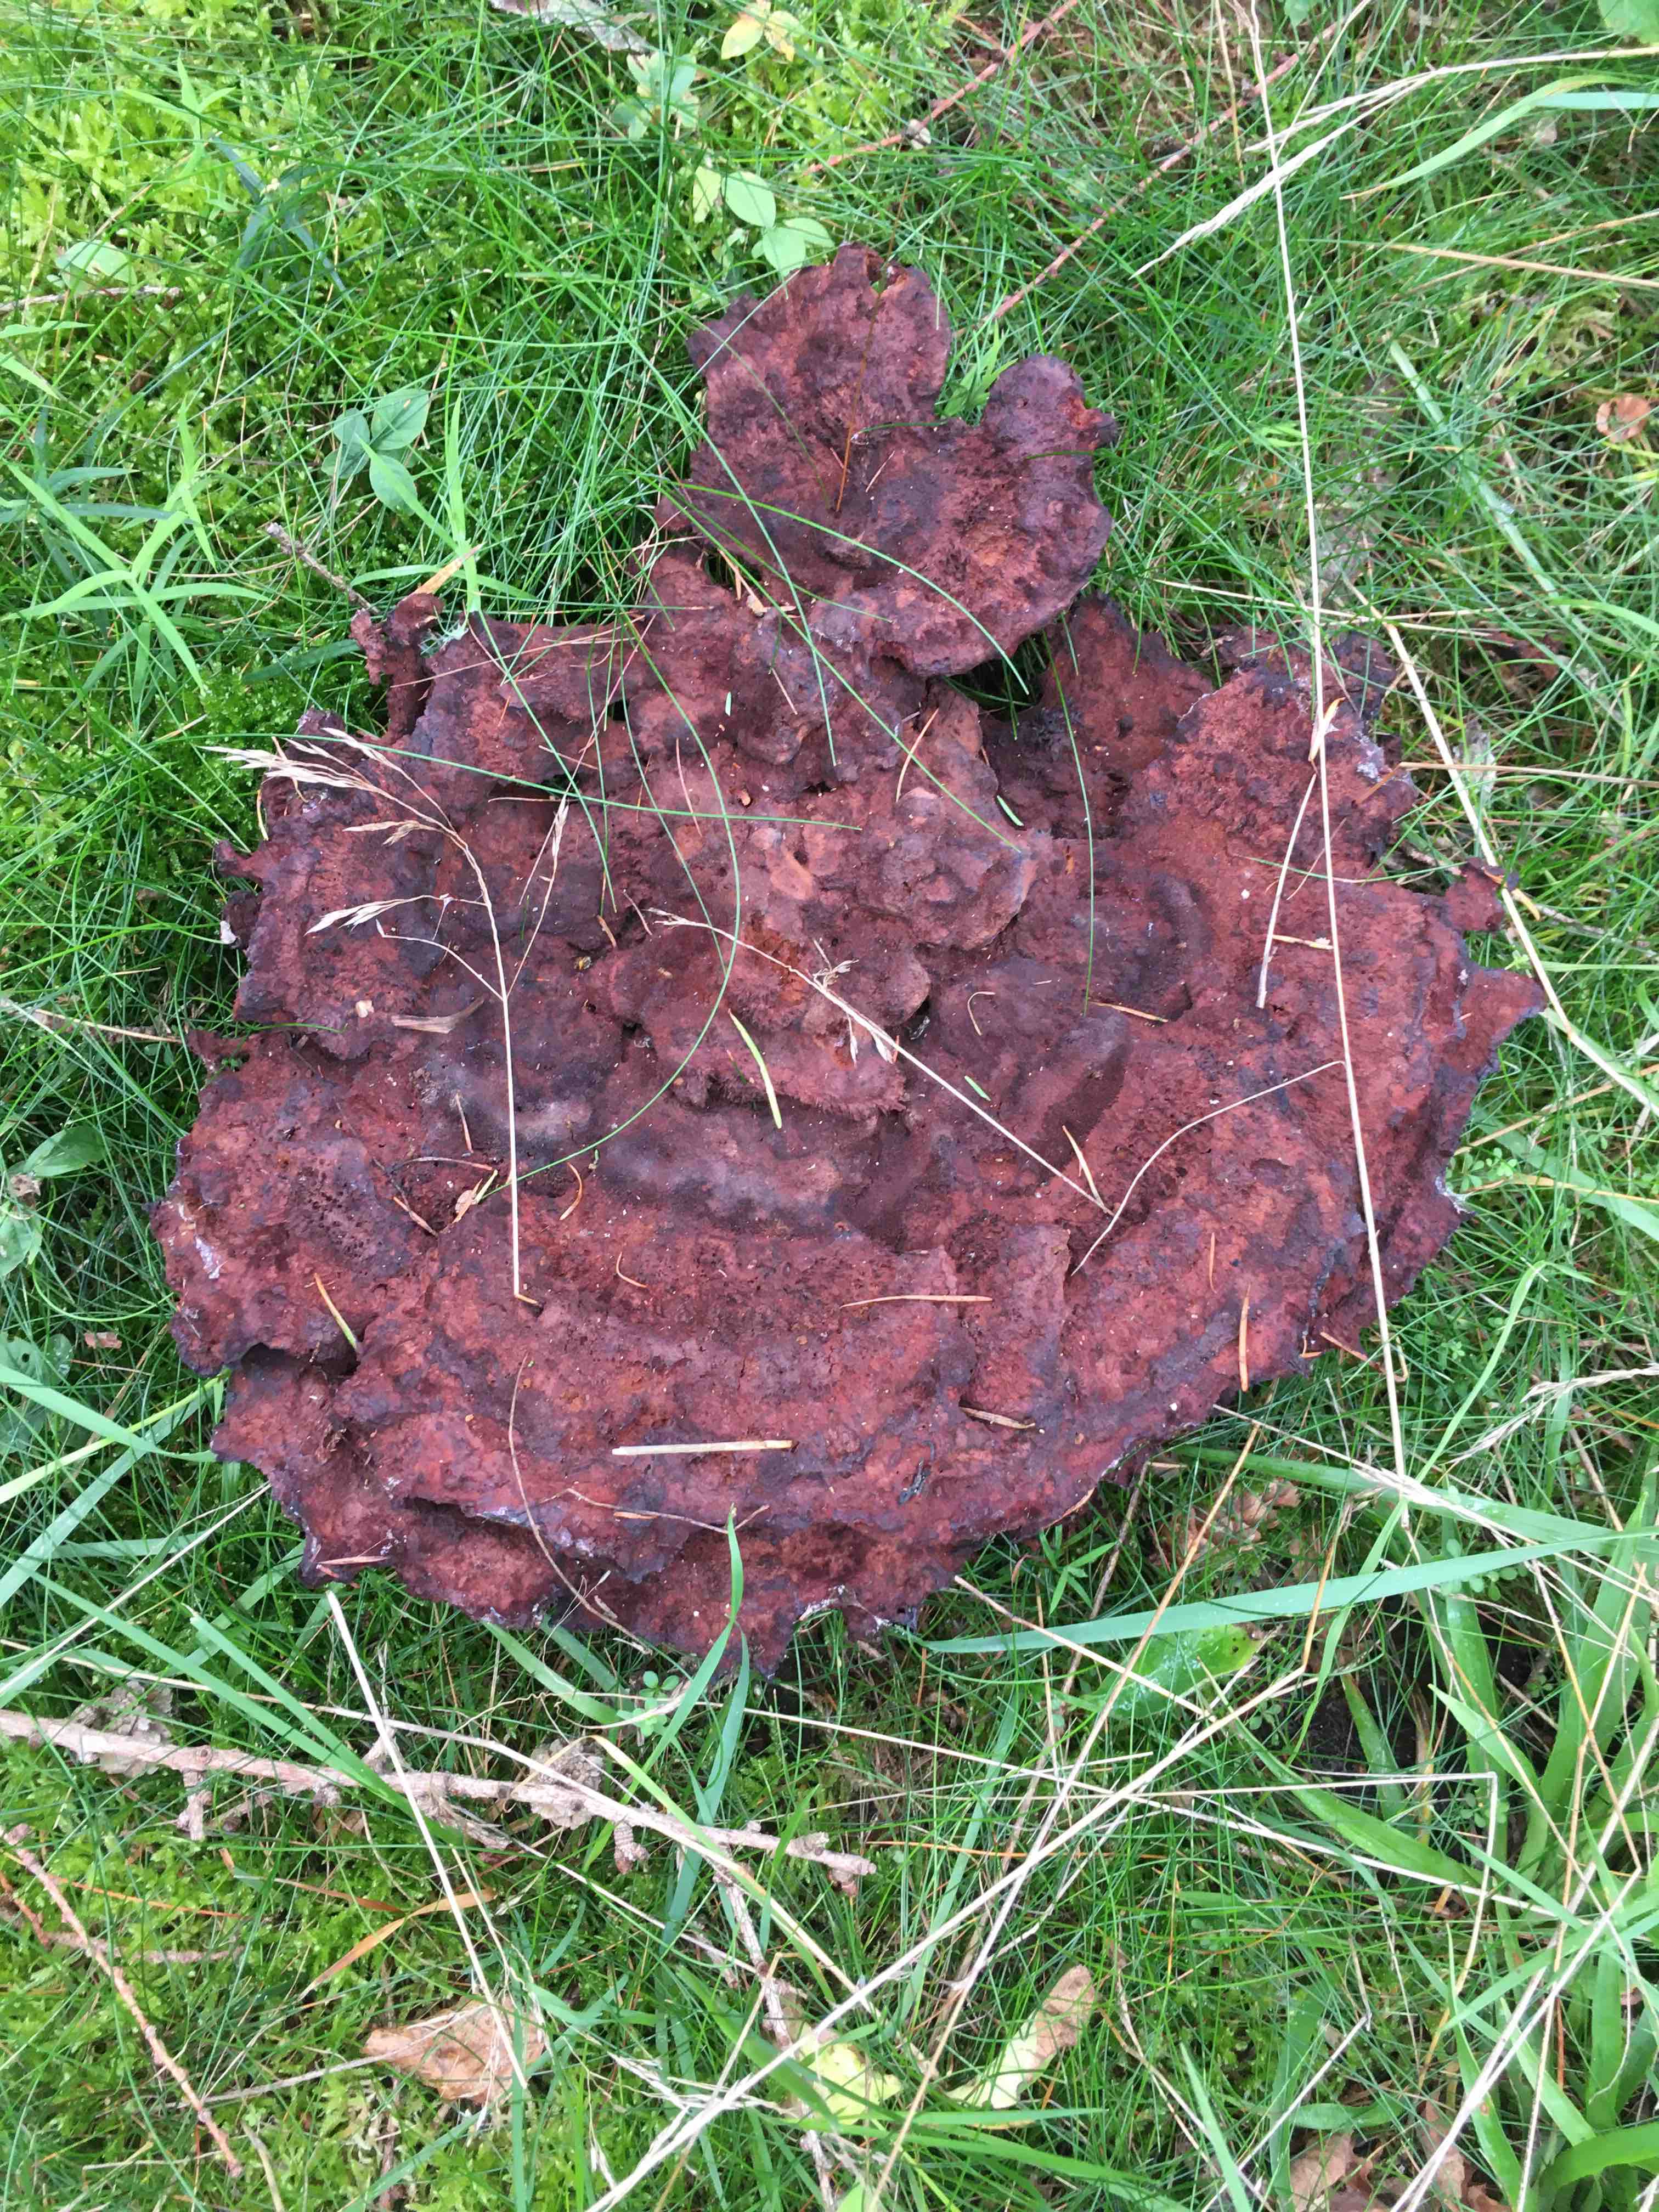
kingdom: Fungi
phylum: Basidiomycota
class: Agaricomycetes
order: Polyporales
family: Laetiporaceae
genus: Phaeolus
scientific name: Phaeolus schweinitzii
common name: brunporesvamp
